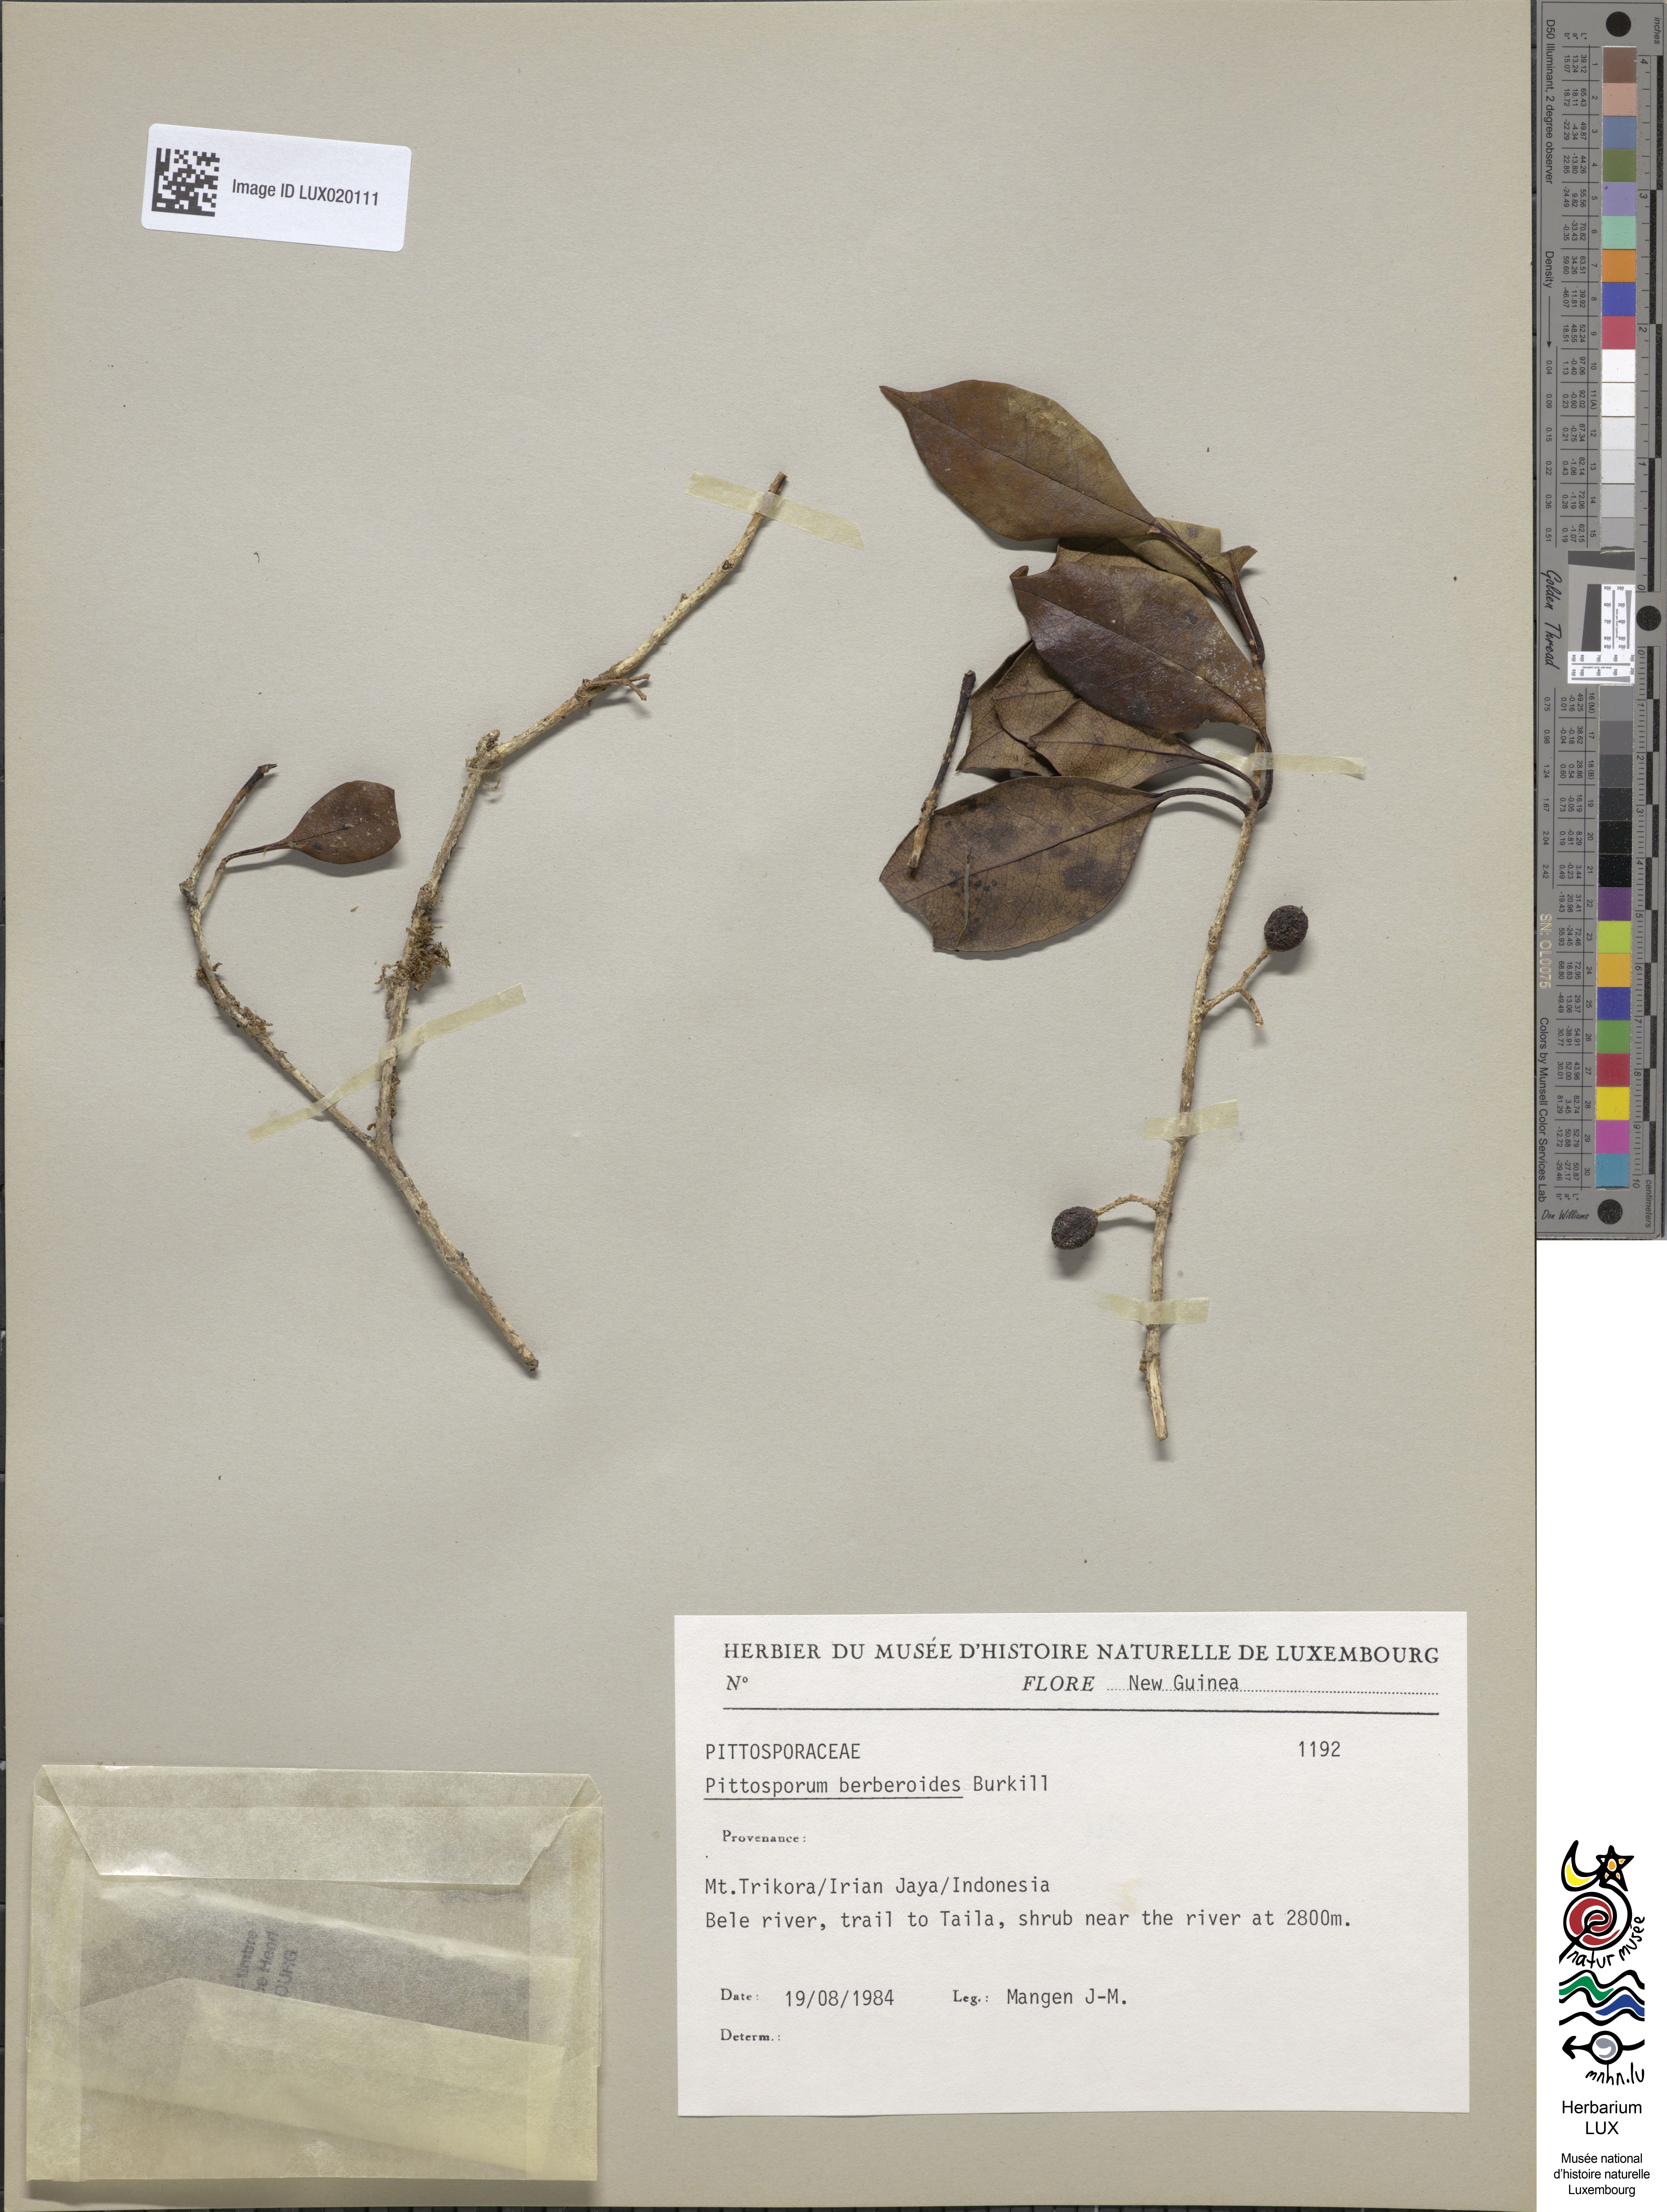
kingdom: Plantae
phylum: Tracheophyta
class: Magnoliopsida
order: Apiales
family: Pittosporaceae
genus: Pittosporum
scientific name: Pittosporum berberidoides
